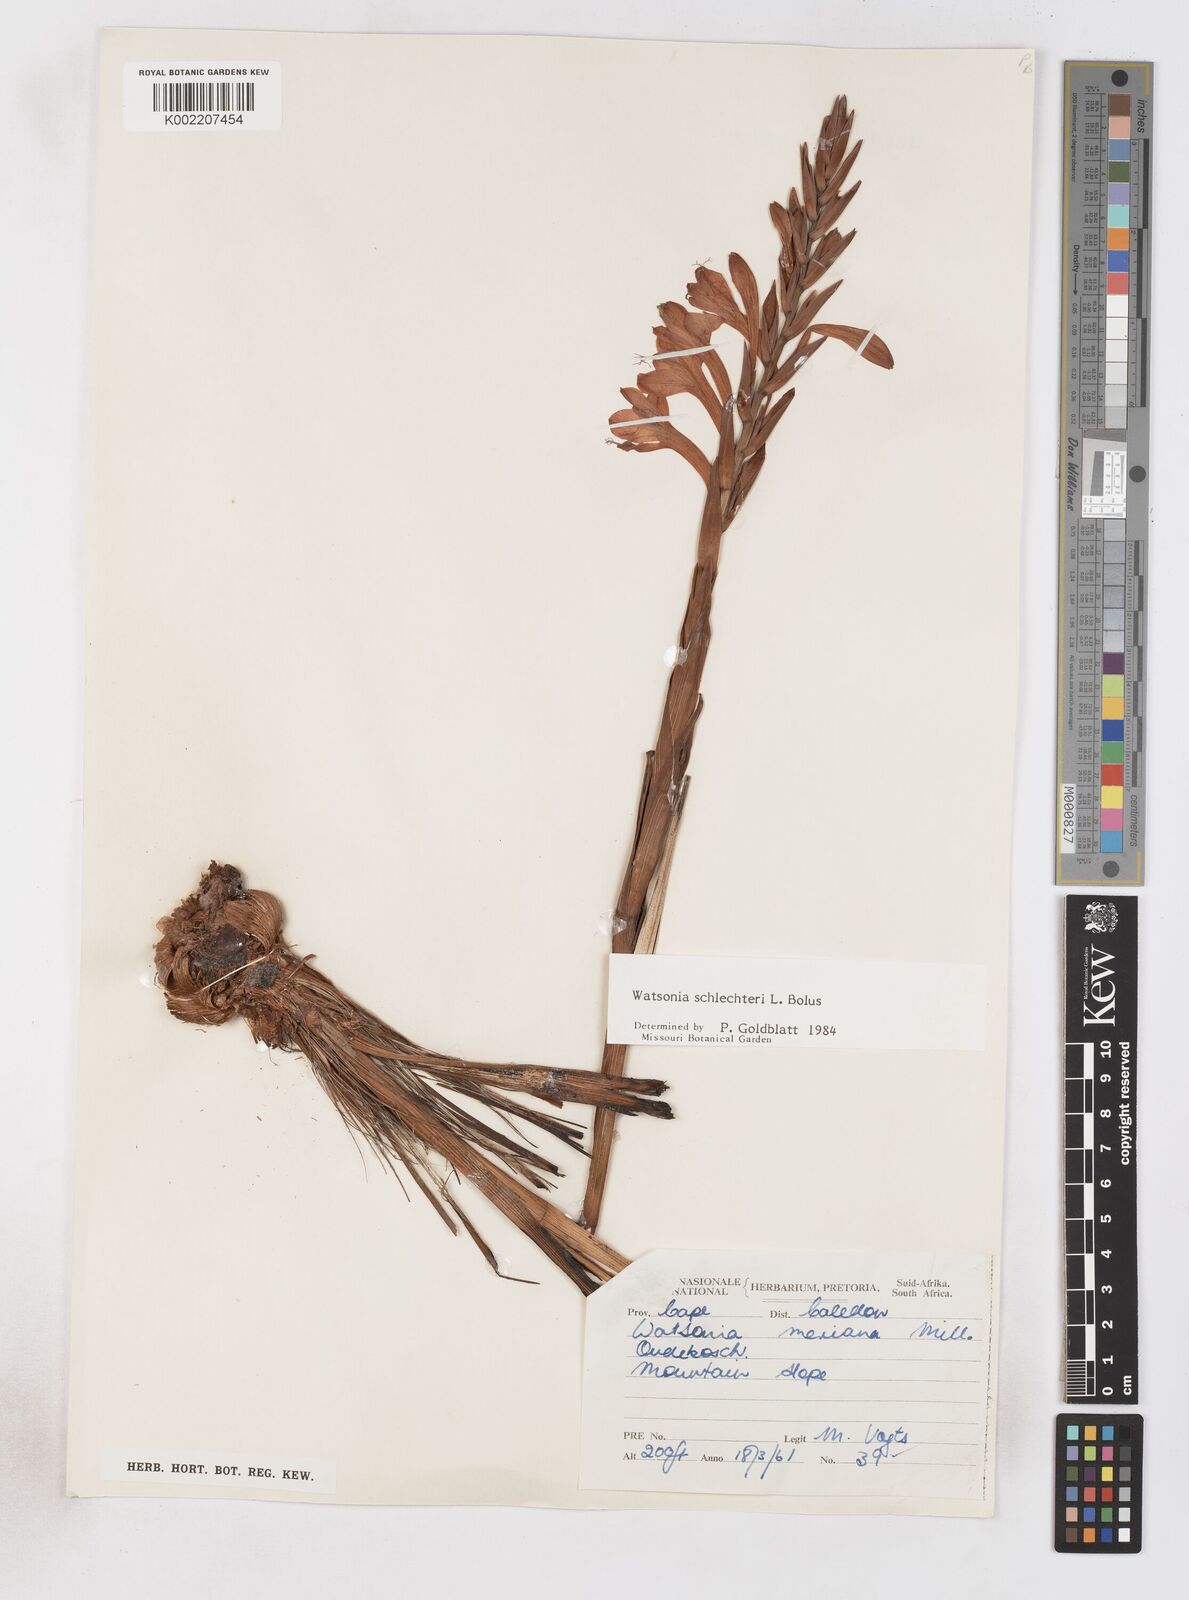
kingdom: Plantae
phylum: Tracheophyta
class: Liliopsida
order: Asparagales
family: Iridaceae
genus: Watsonia
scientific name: Watsonia schlechteri
